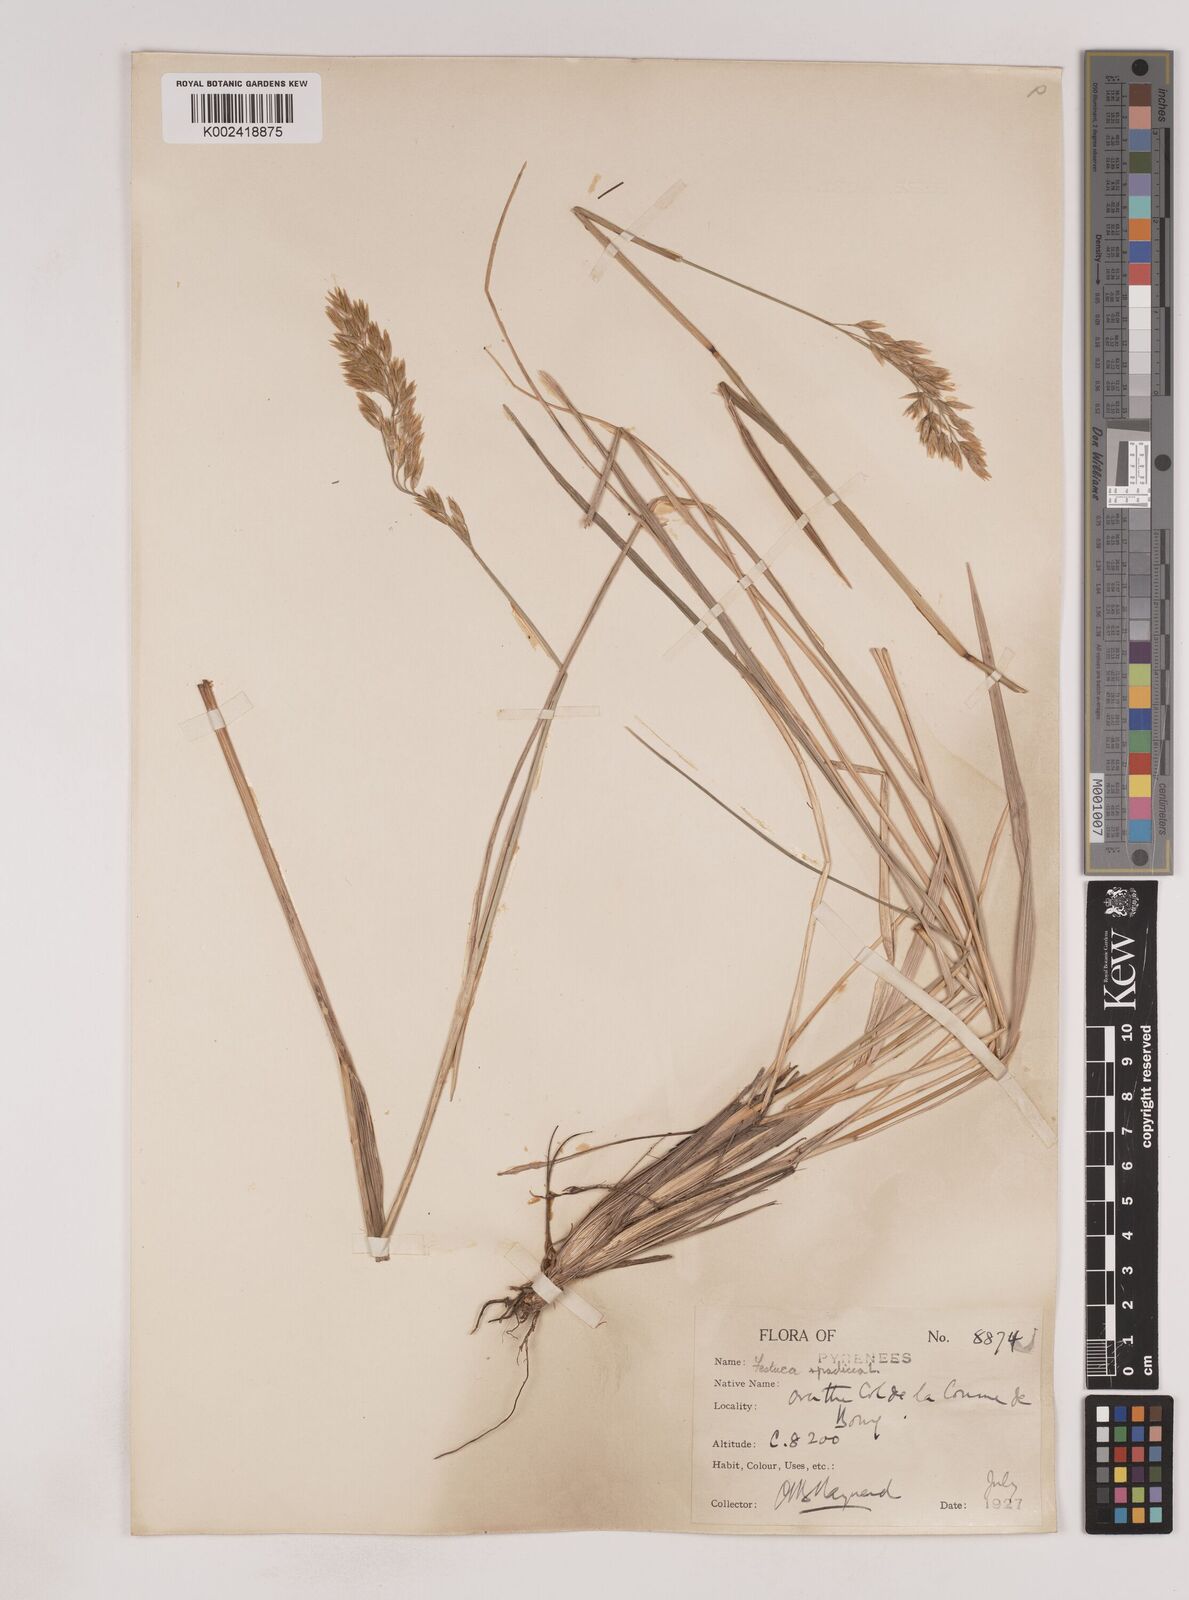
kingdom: Plantae
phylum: Tracheophyta
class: Liliopsida
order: Poales
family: Poaceae
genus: Patzkea
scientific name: Patzkea paniculata
